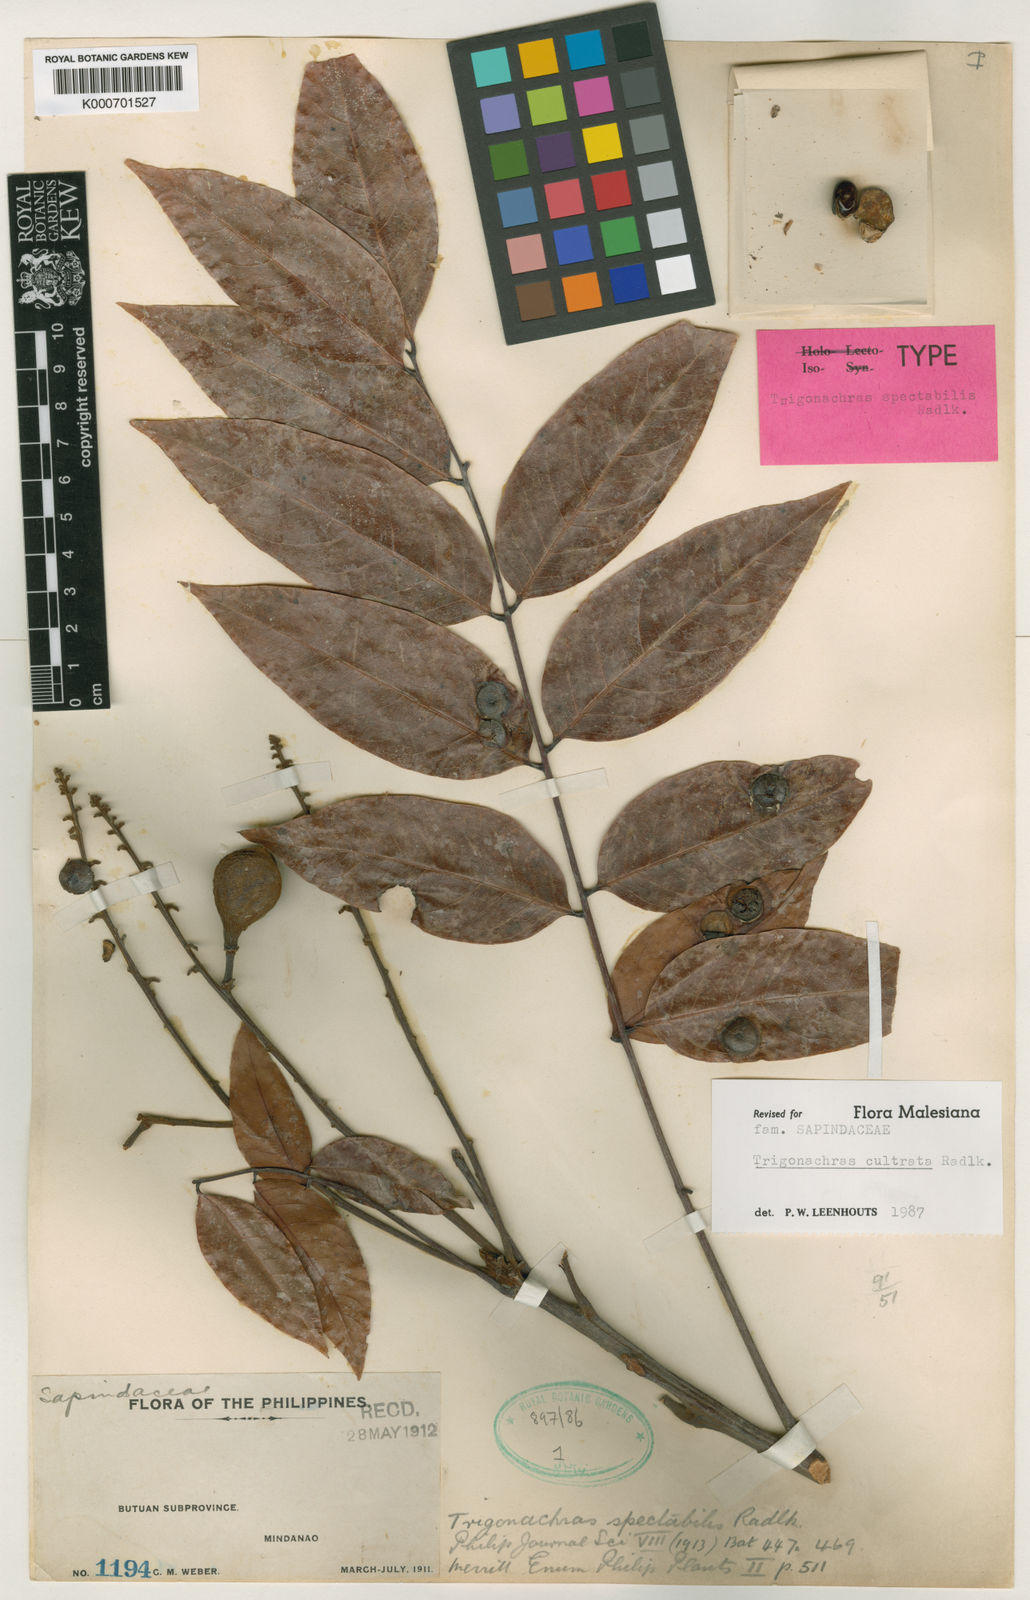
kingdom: Plantae
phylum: Tracheophyta
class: Magnoliopsida
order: Sapindales
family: Sapindaceae
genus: Trigonachras
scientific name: Trigonachras cultrata
